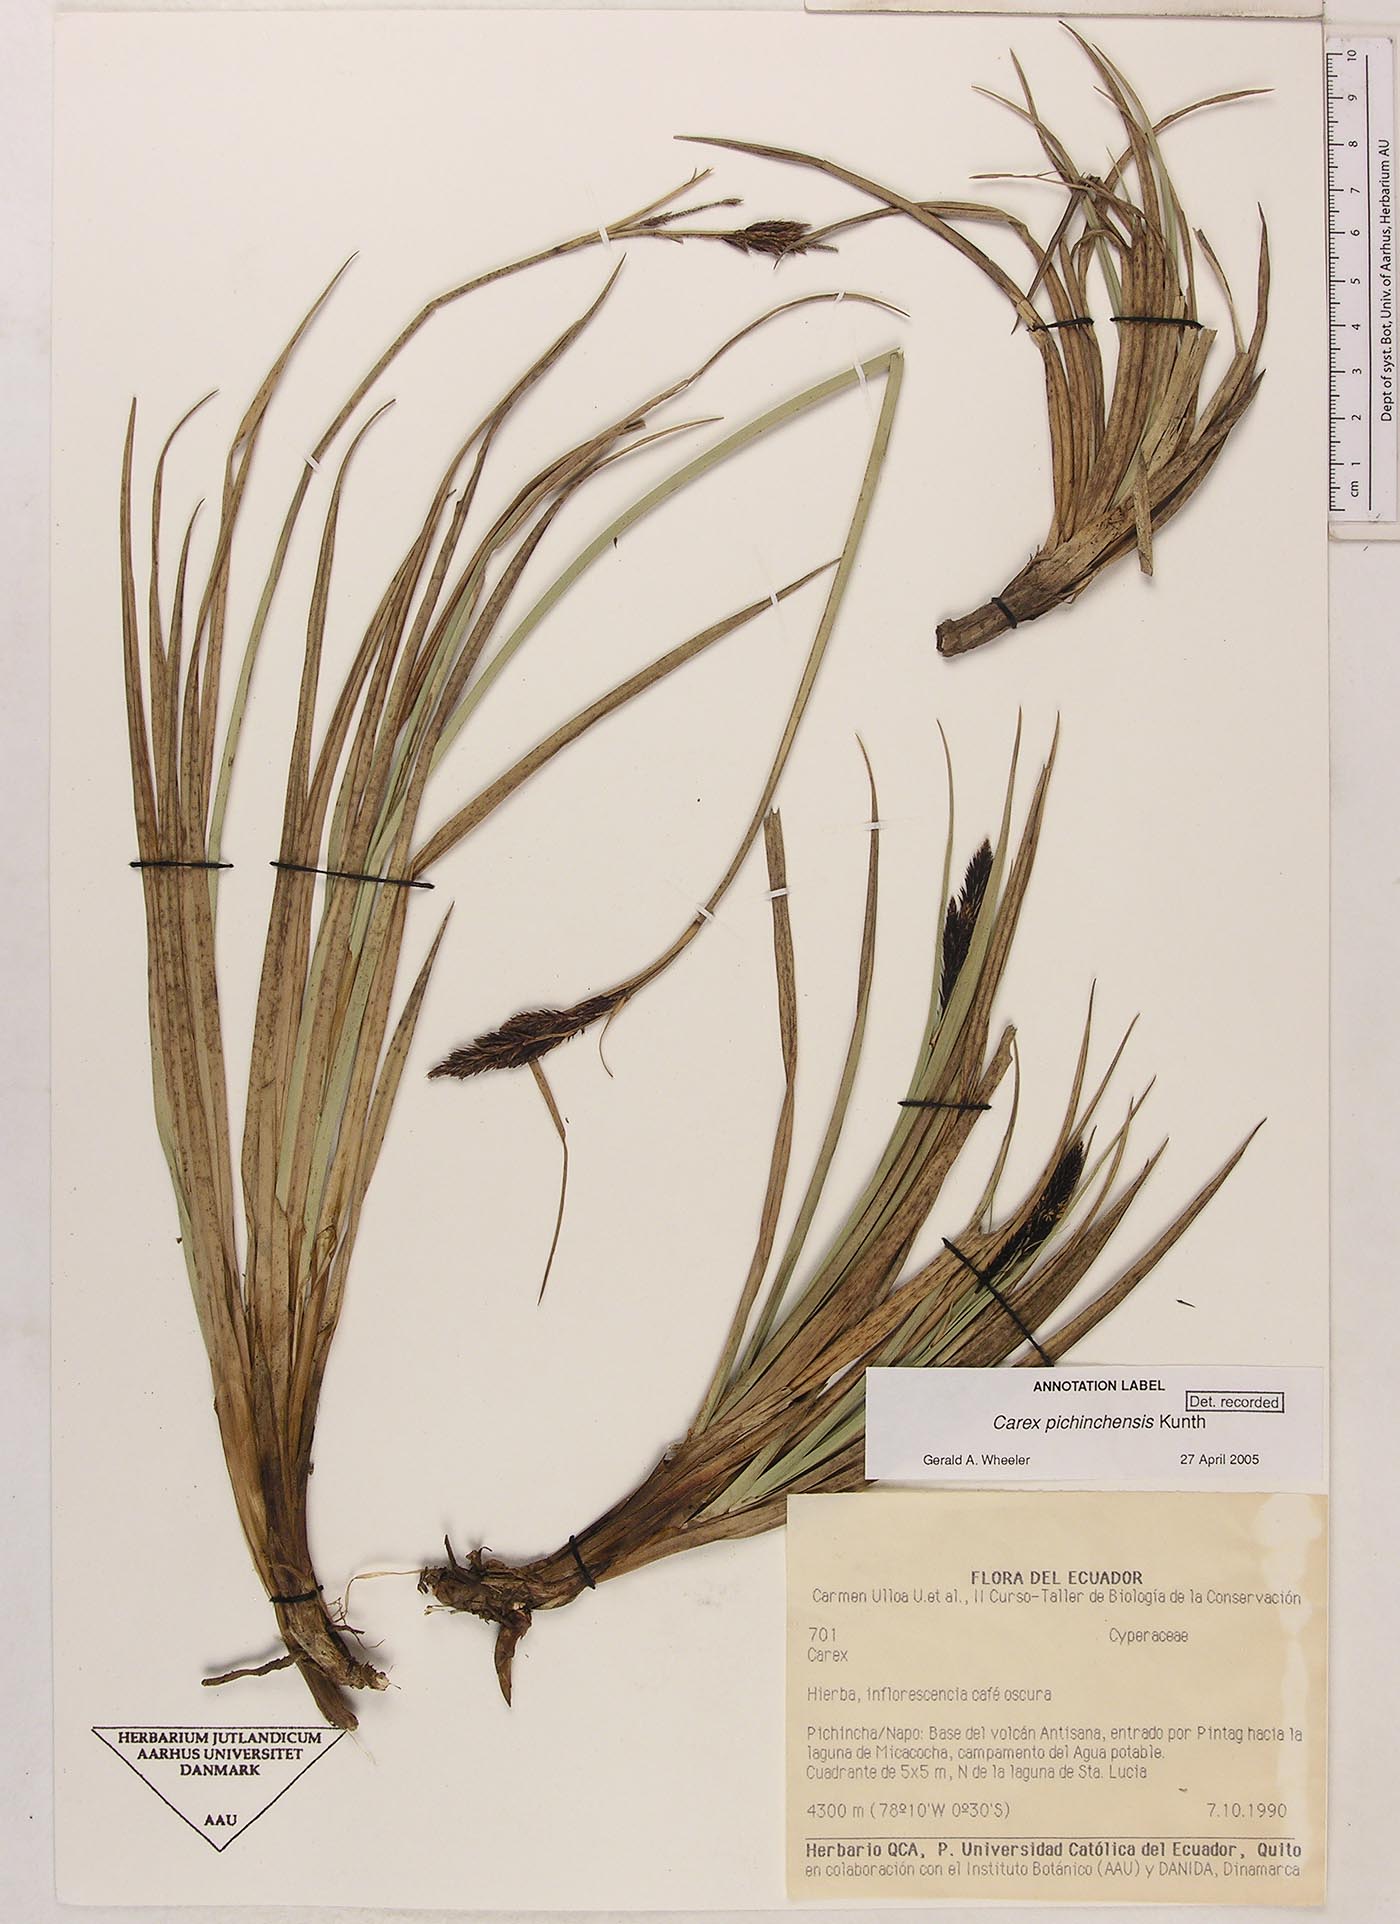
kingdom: Plantae
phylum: Tracheophyta
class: Liliopsida
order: Poales
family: Cyperaceae
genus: Carex
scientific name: Carex pichinchensis
